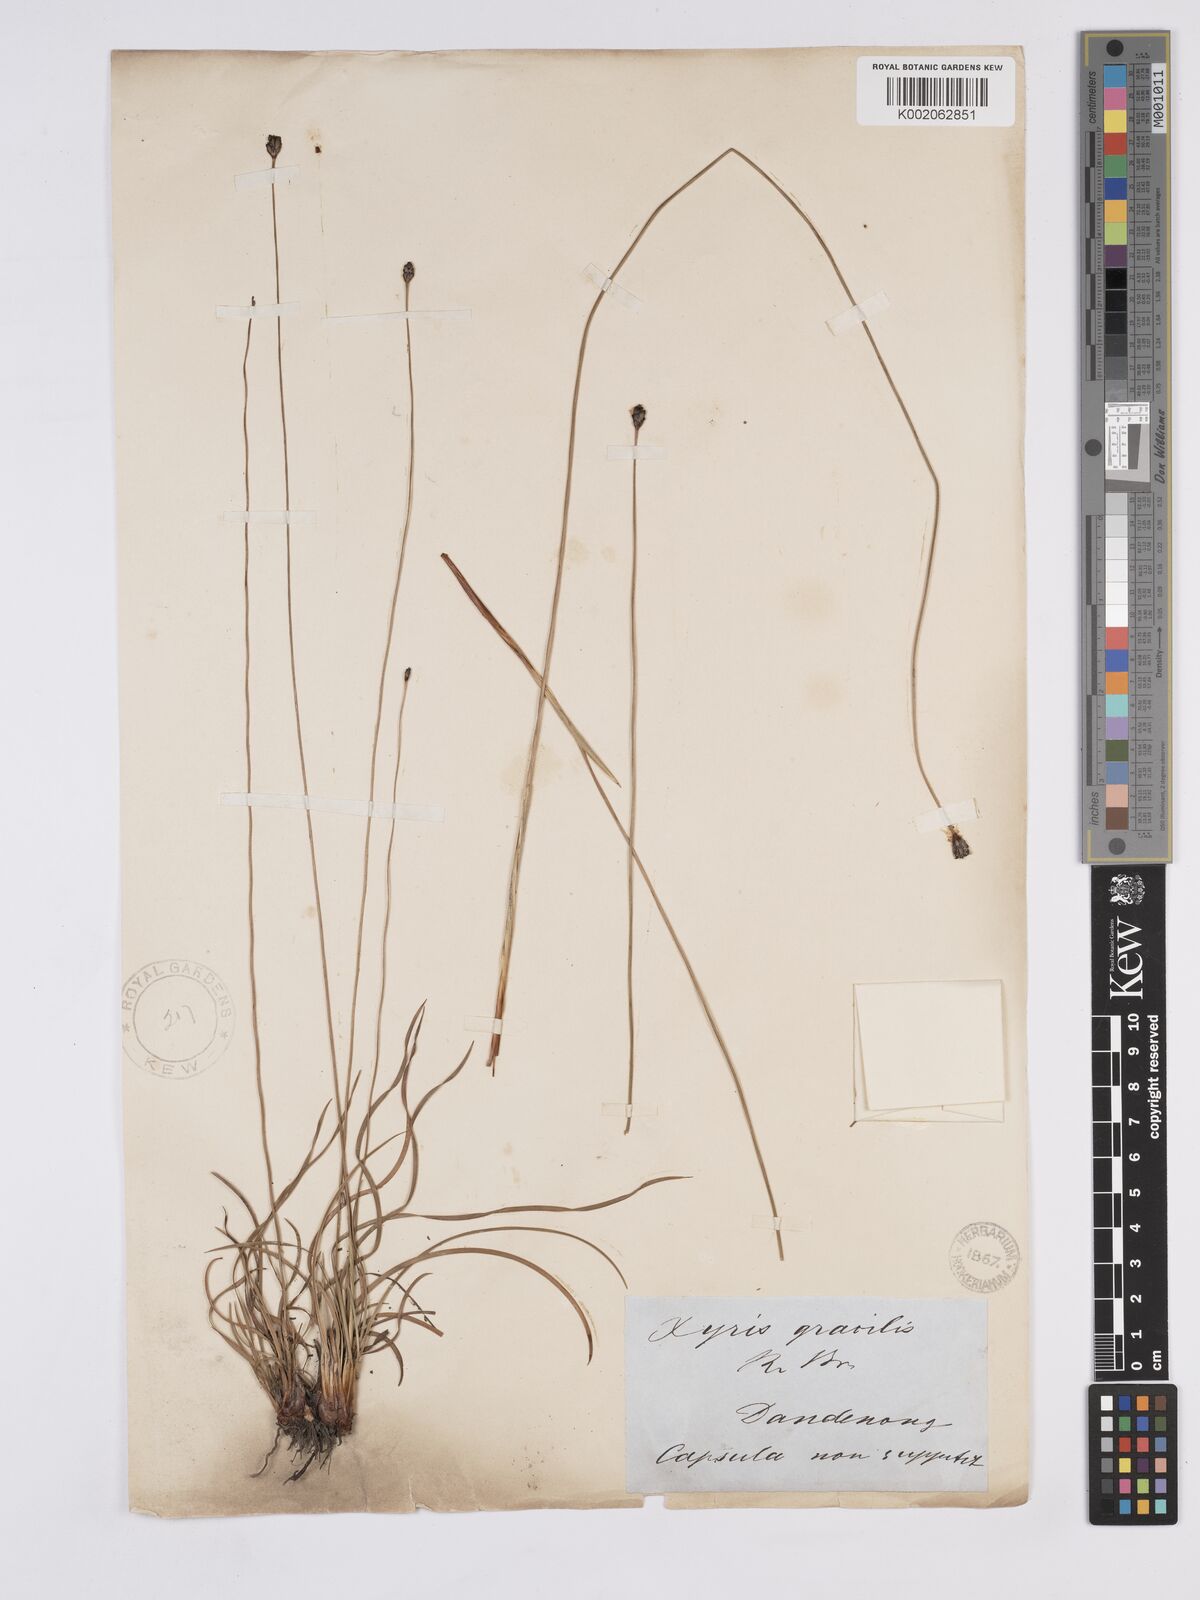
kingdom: Plantae
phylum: Tracheophyta
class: Liliopsida
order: Poales
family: Xyridaceae
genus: Xyris
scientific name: Xyris gracilis
